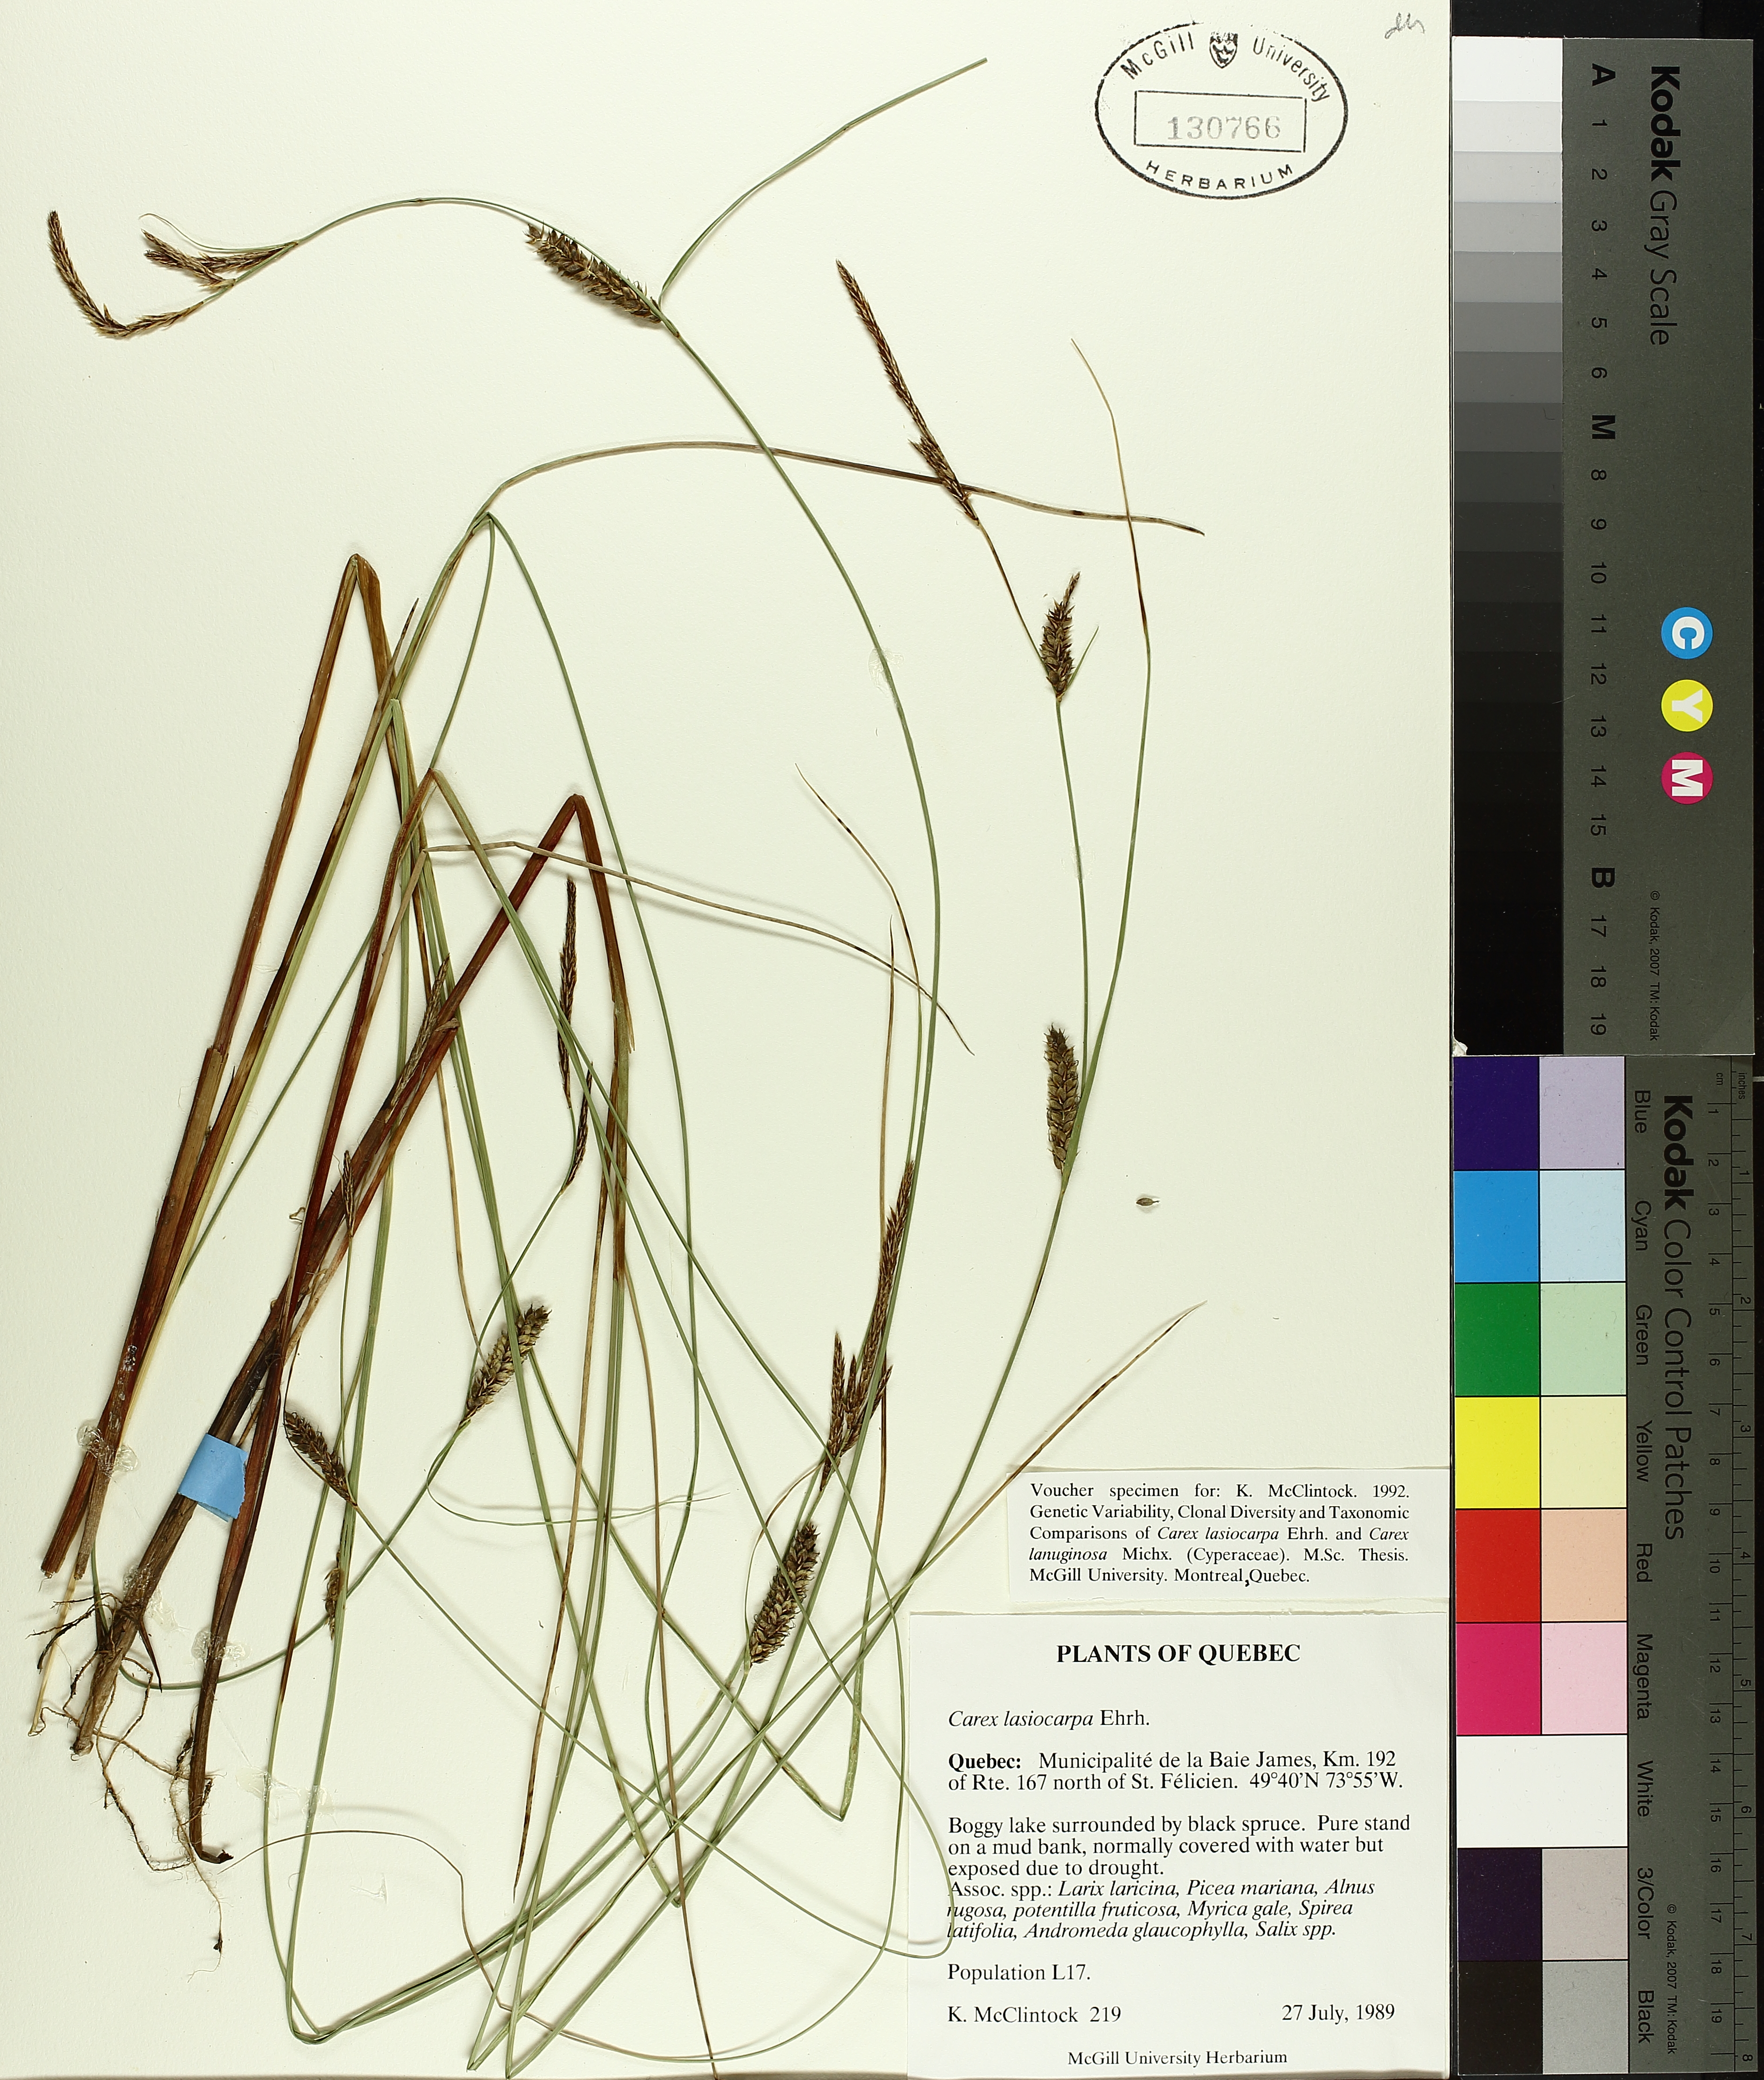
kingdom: Plantae
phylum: Tracheophyta
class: Liliopsida
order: Poales
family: Cyperaceae
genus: Carex
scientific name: Carex lasiocarpa
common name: Slender sedge
